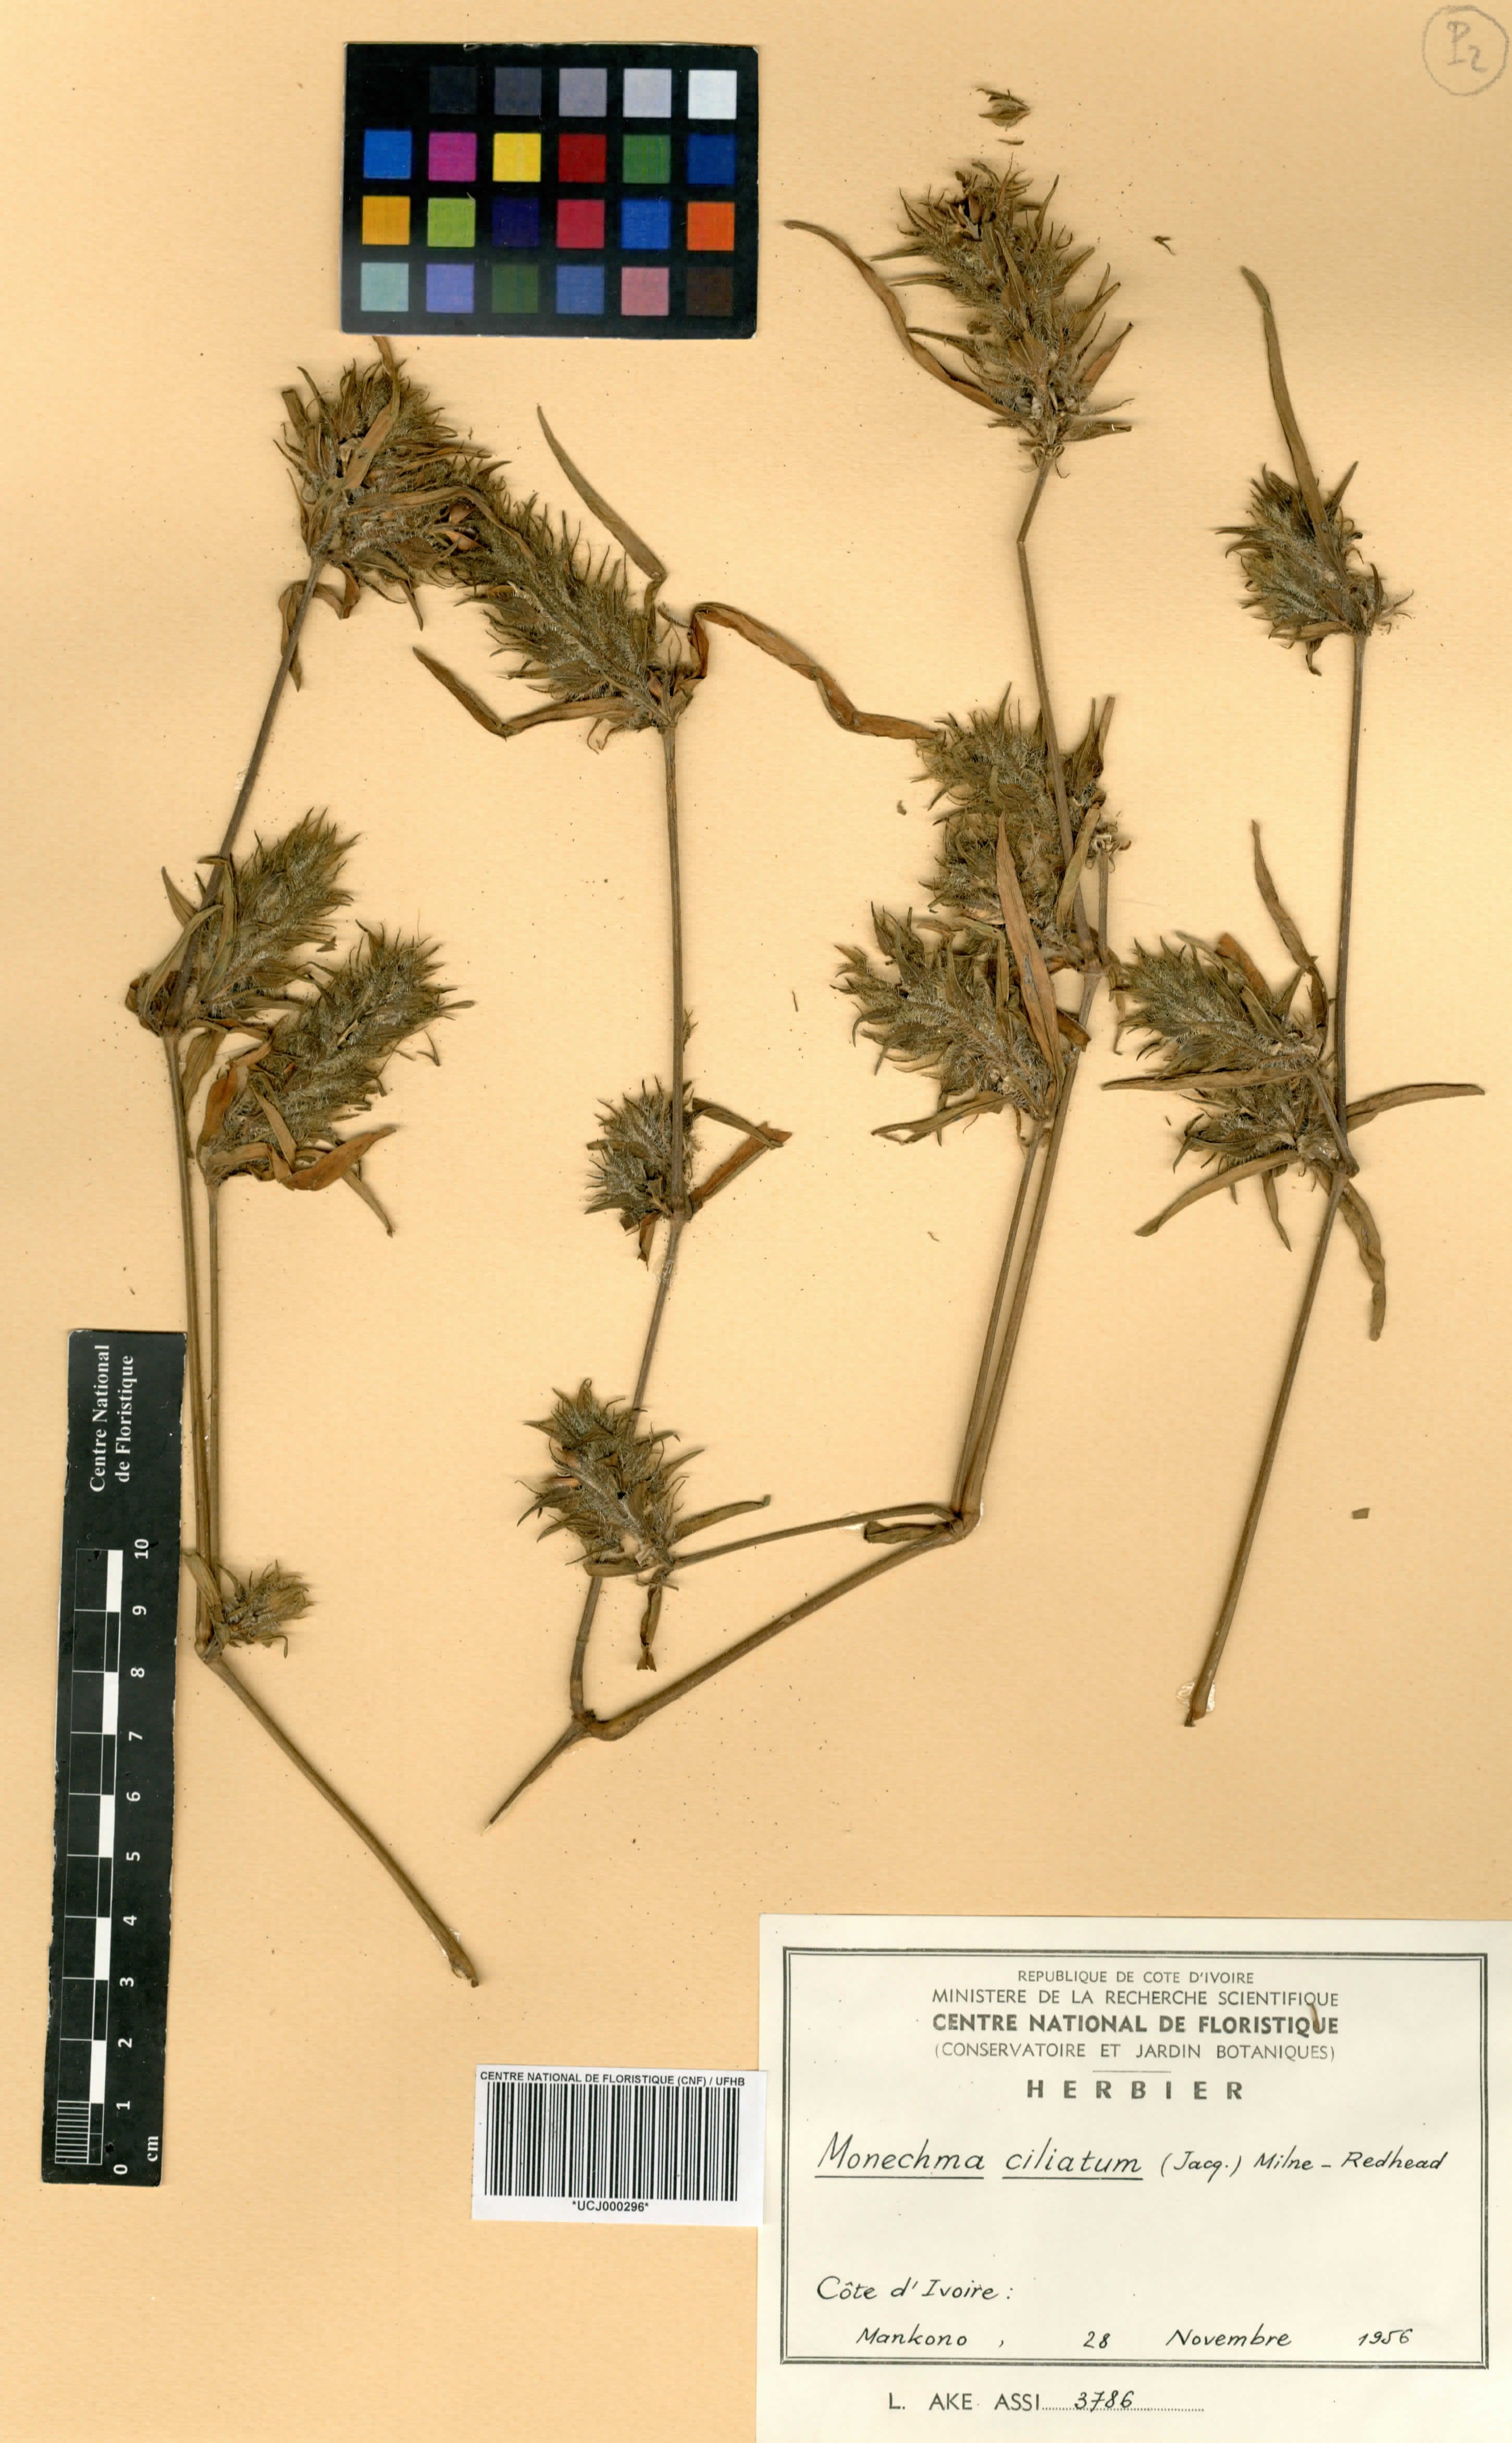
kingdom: Plantae
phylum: Tracheophyta
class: Magnoliopsida
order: Lamiales
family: Acanthaceae
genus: Monechma
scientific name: Monechma
